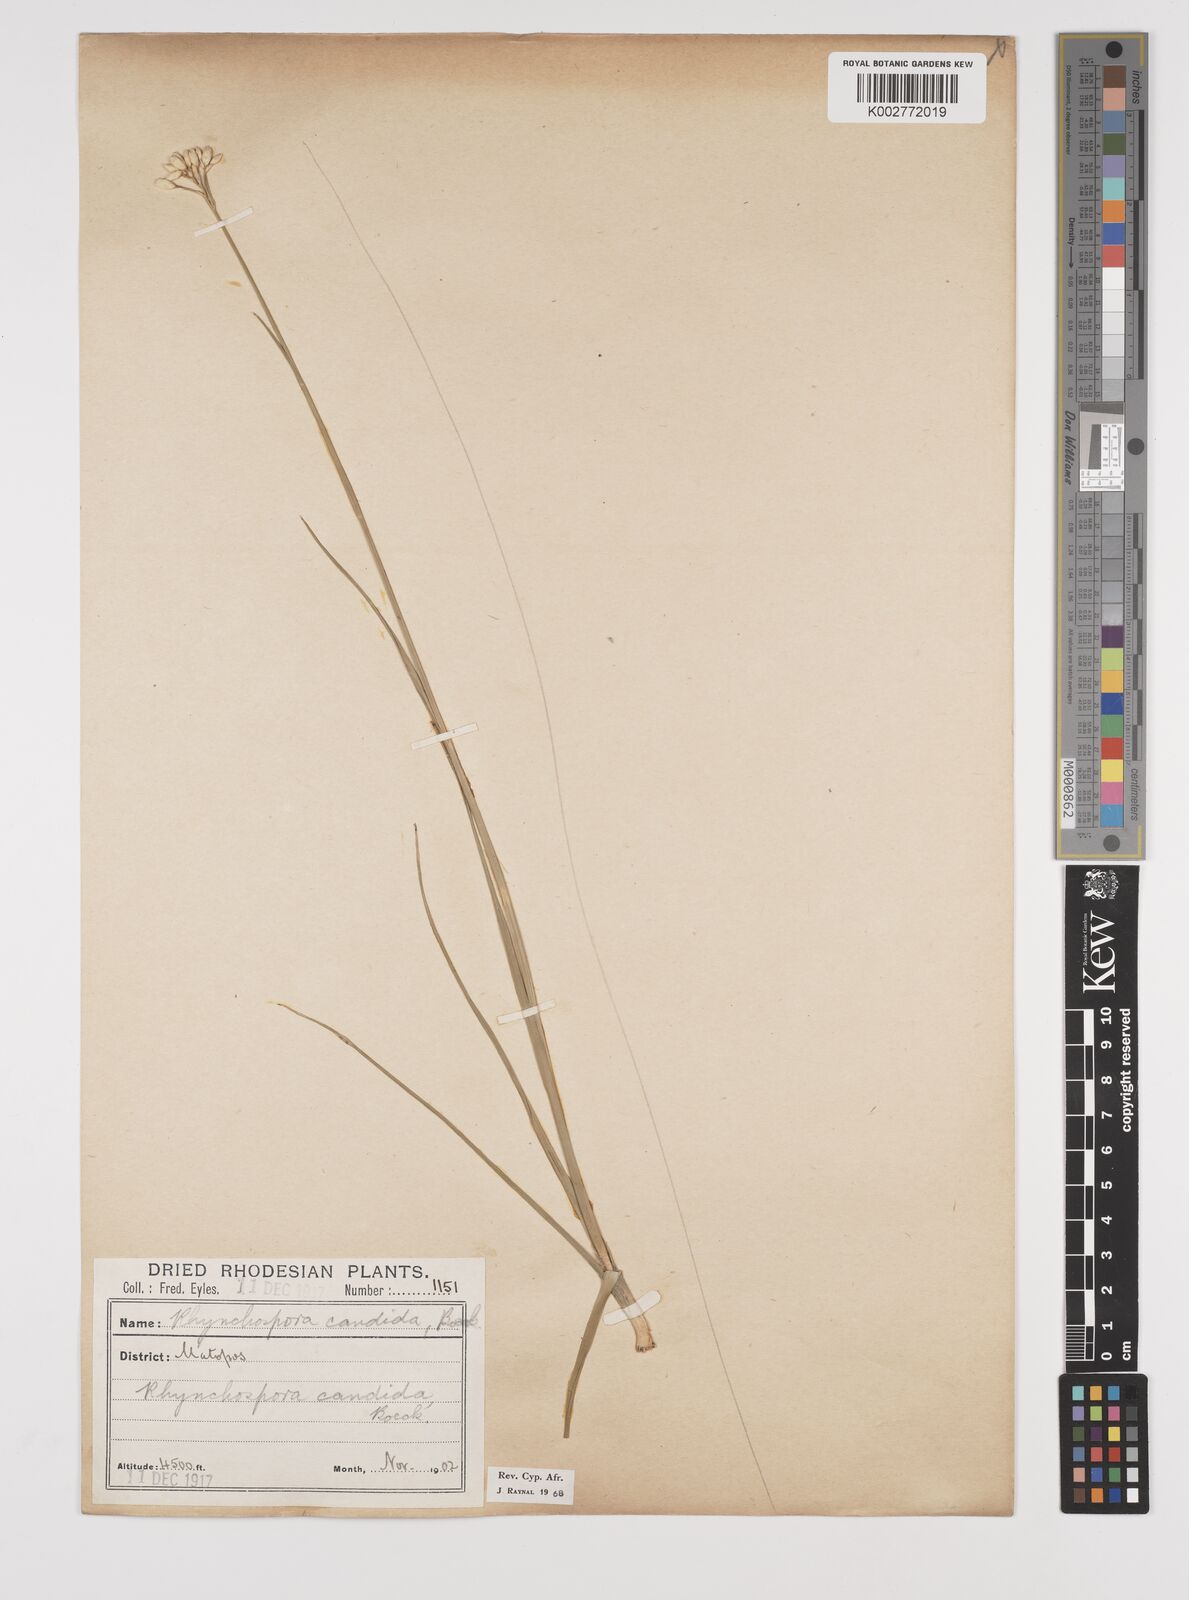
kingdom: Plantae
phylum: Tracheophyta
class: Liliopsida
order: Poales
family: Cyperaceae
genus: Rhynchospora
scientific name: Rhynchospora candida
